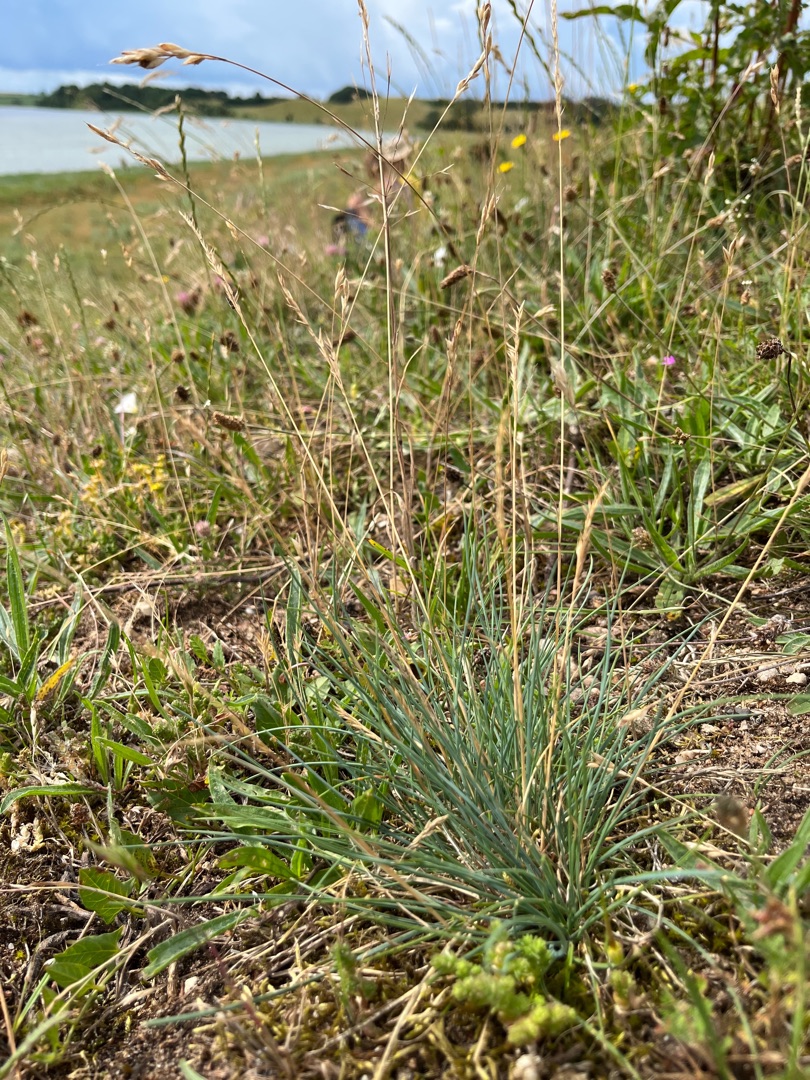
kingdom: Plantae
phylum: Tracheophyta
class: Liliopsida
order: Poales
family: Poaceae
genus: Festuca
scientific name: Festuca trachyphylla
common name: Bakke-svingel
